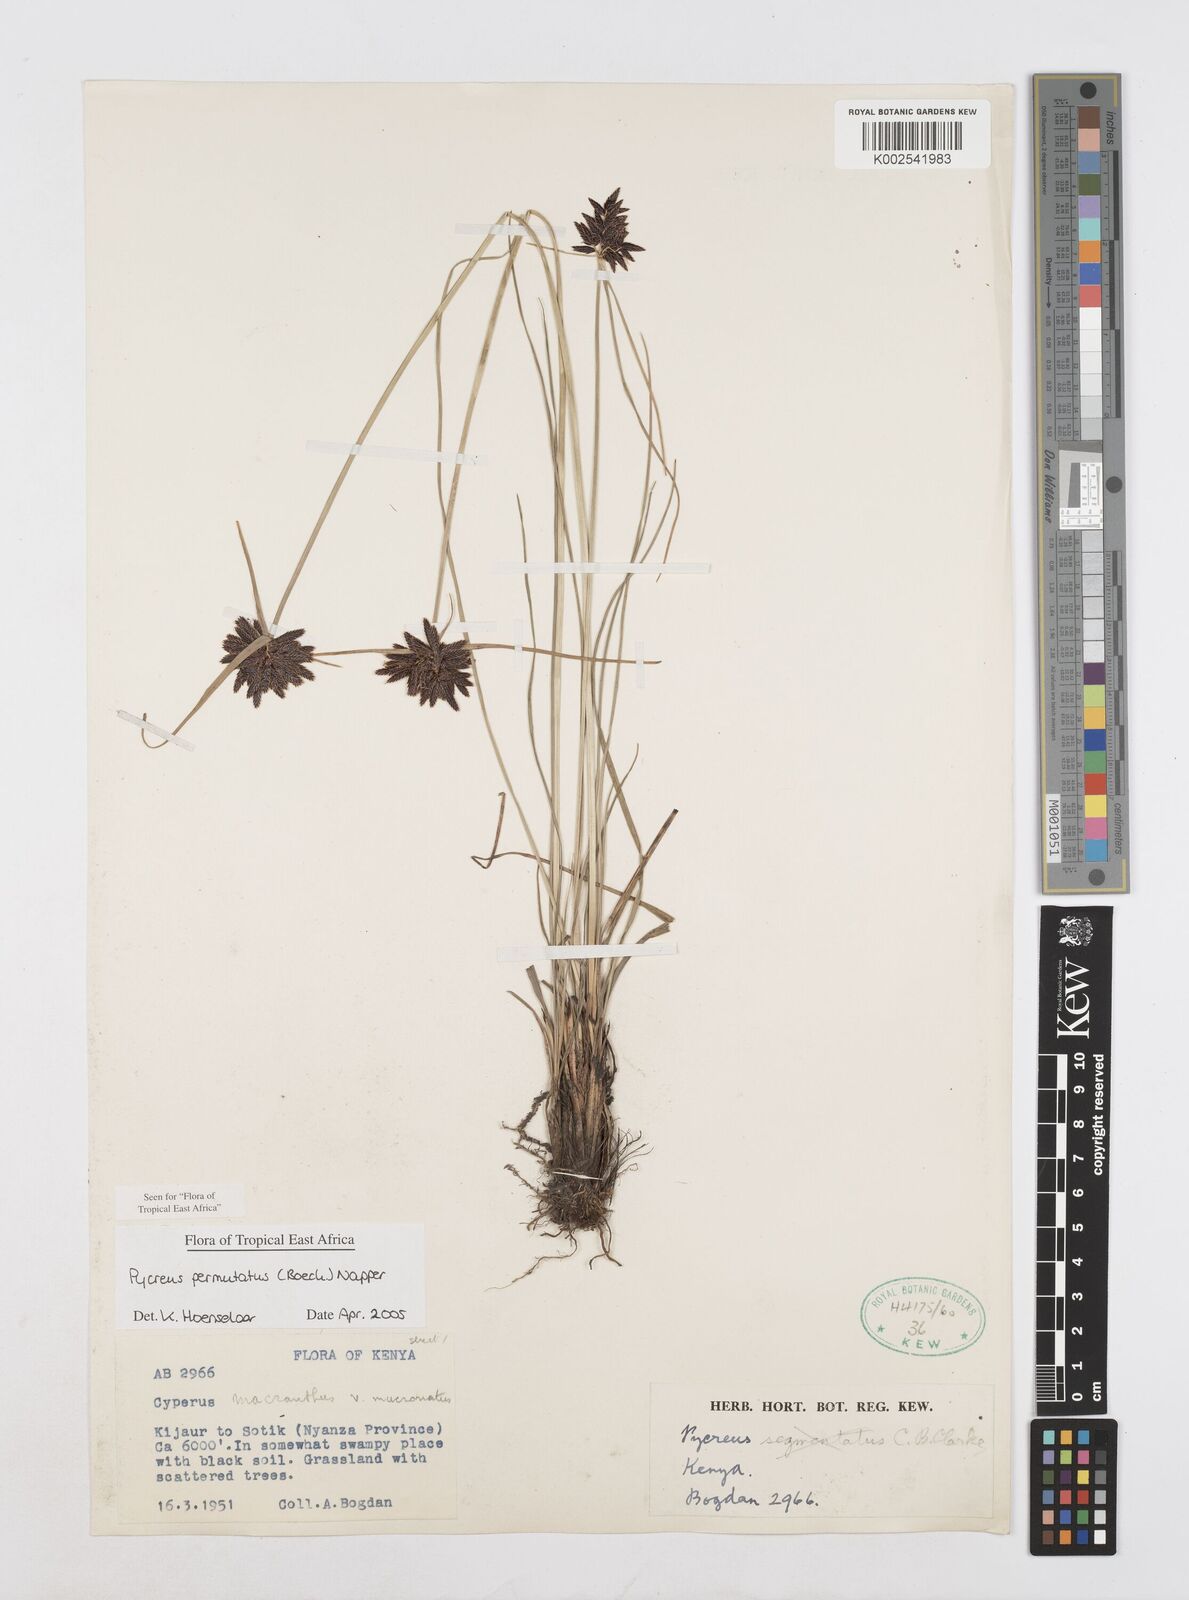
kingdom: Plantae
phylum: Tracheophyta
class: Liliopsida
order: Poales
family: Cyperaceae
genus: Cyperus
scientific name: Cyperus nigricans
